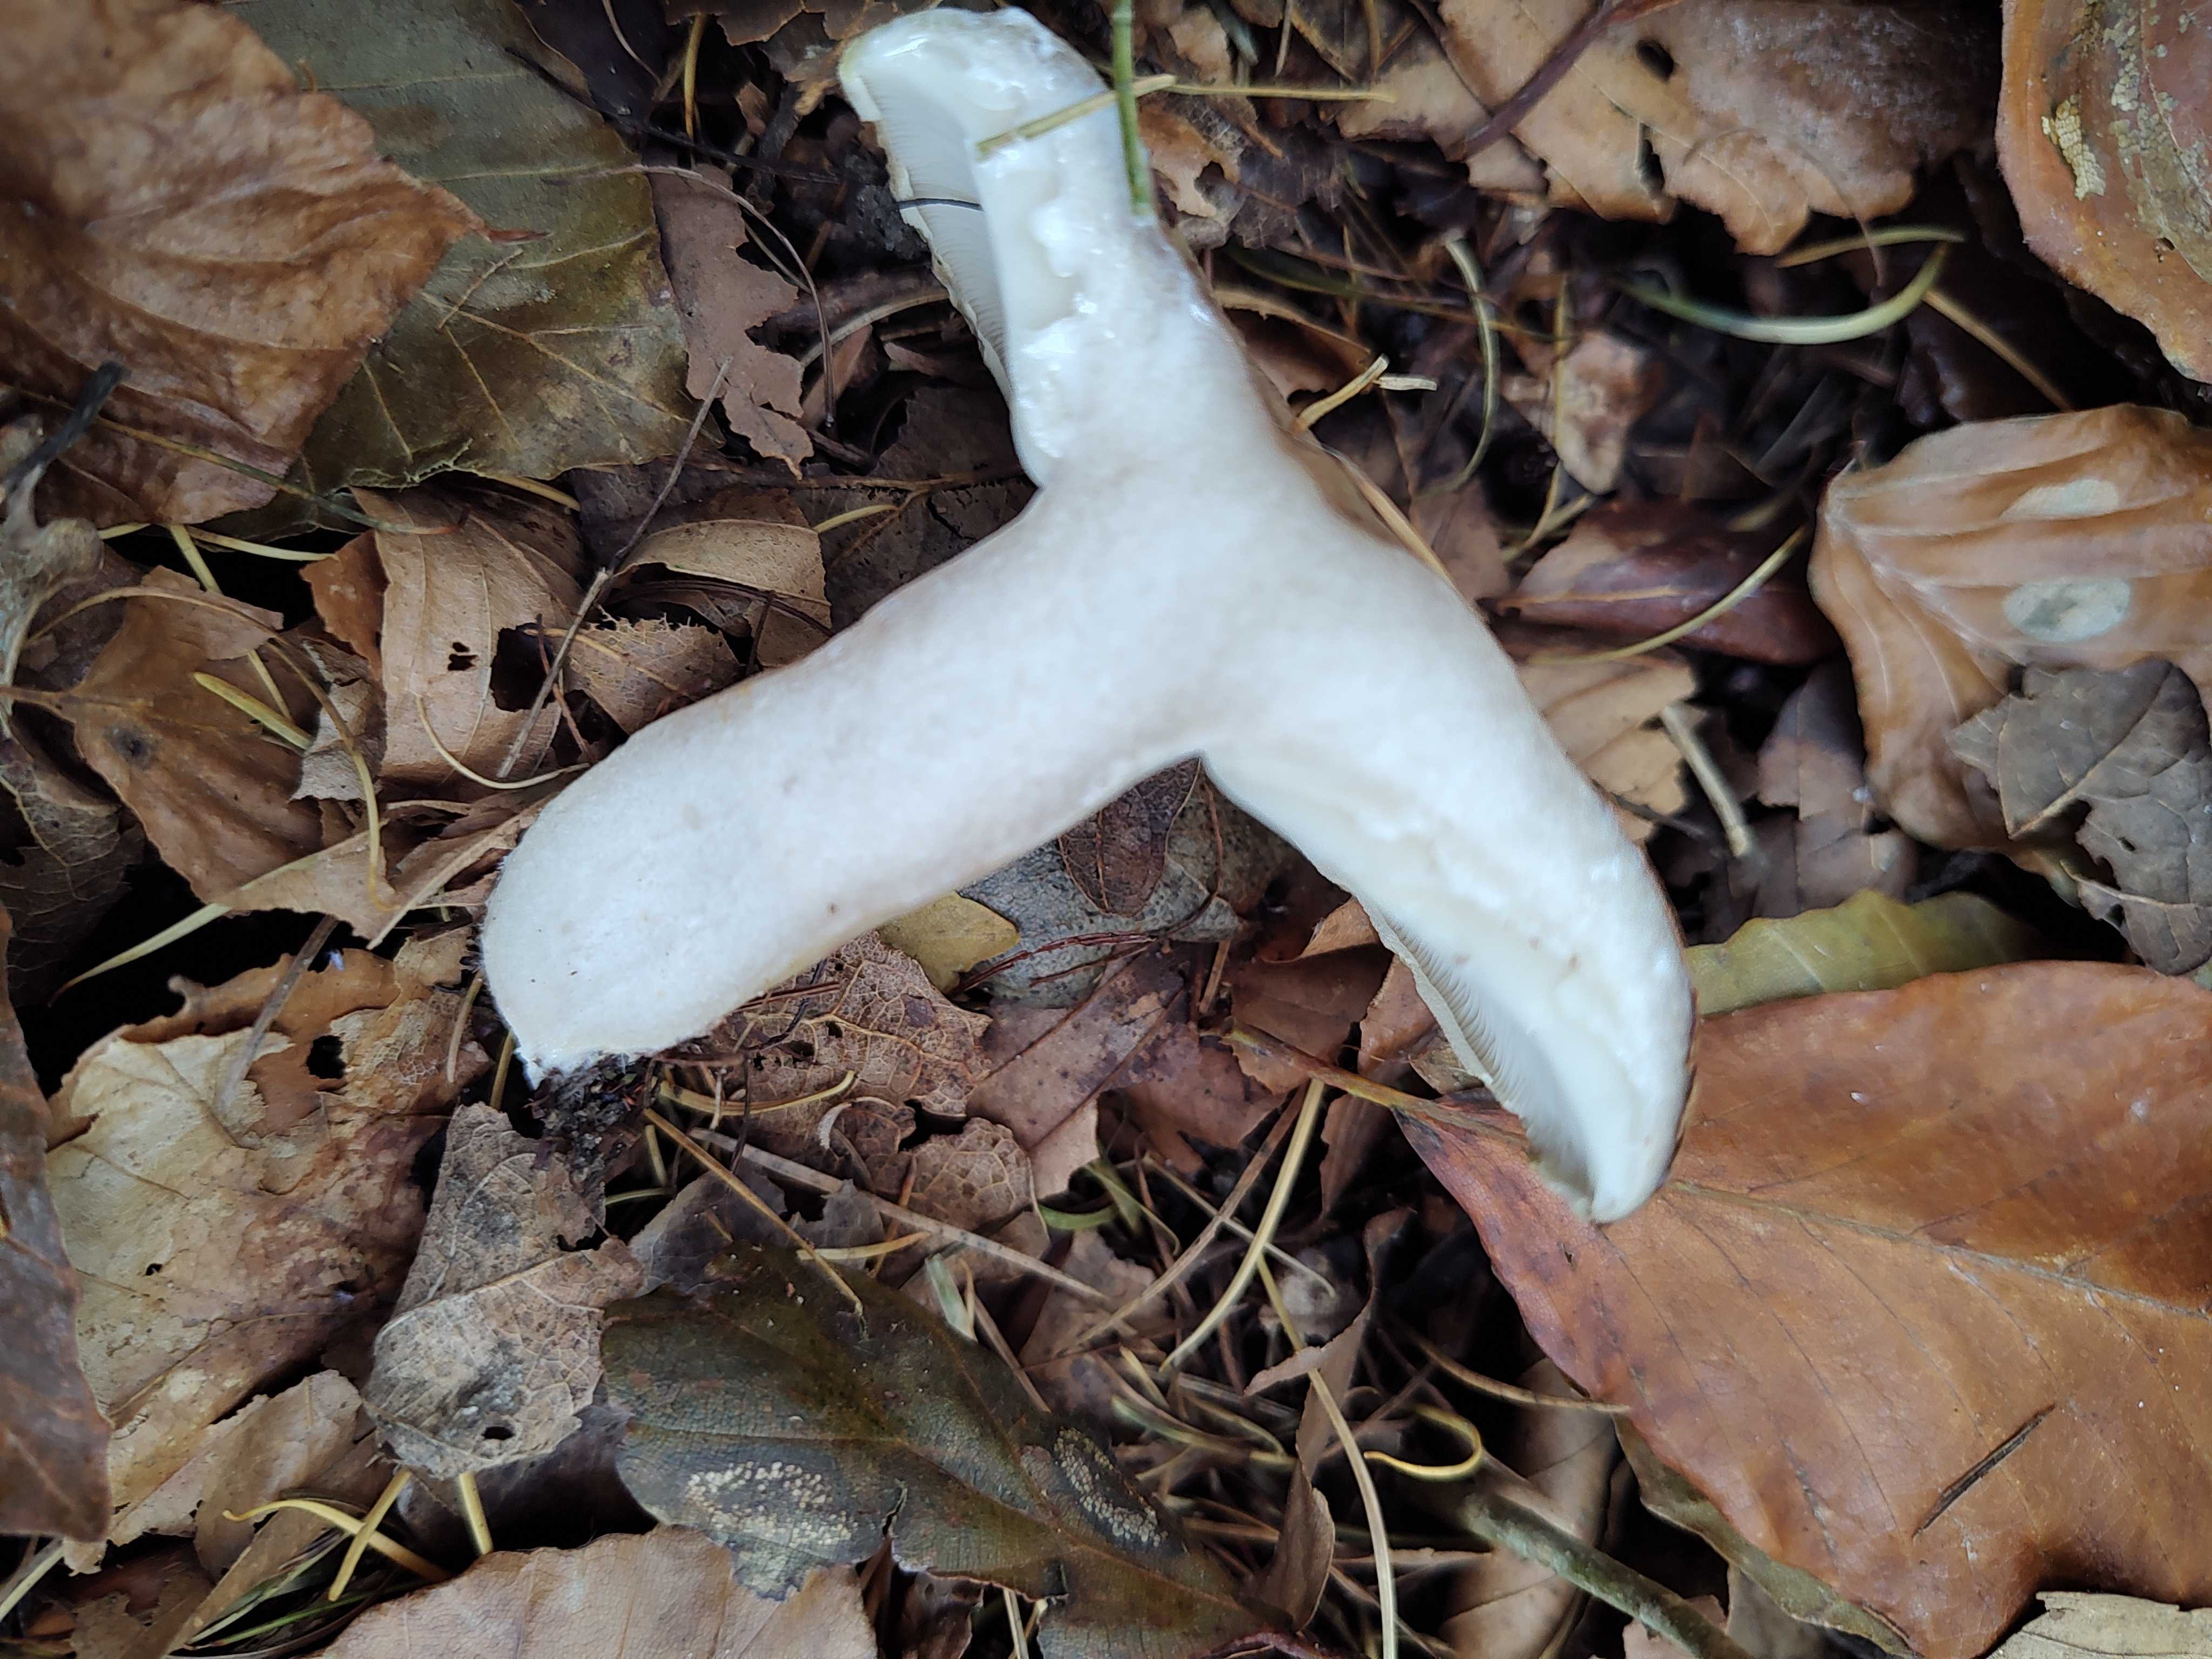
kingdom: Fungi
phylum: Basidiomycota
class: Agaricomycetes
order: Russulales
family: Russulaceae
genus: Lactarius
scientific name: Lactarius blennius
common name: dråbeplettet mælkehat
